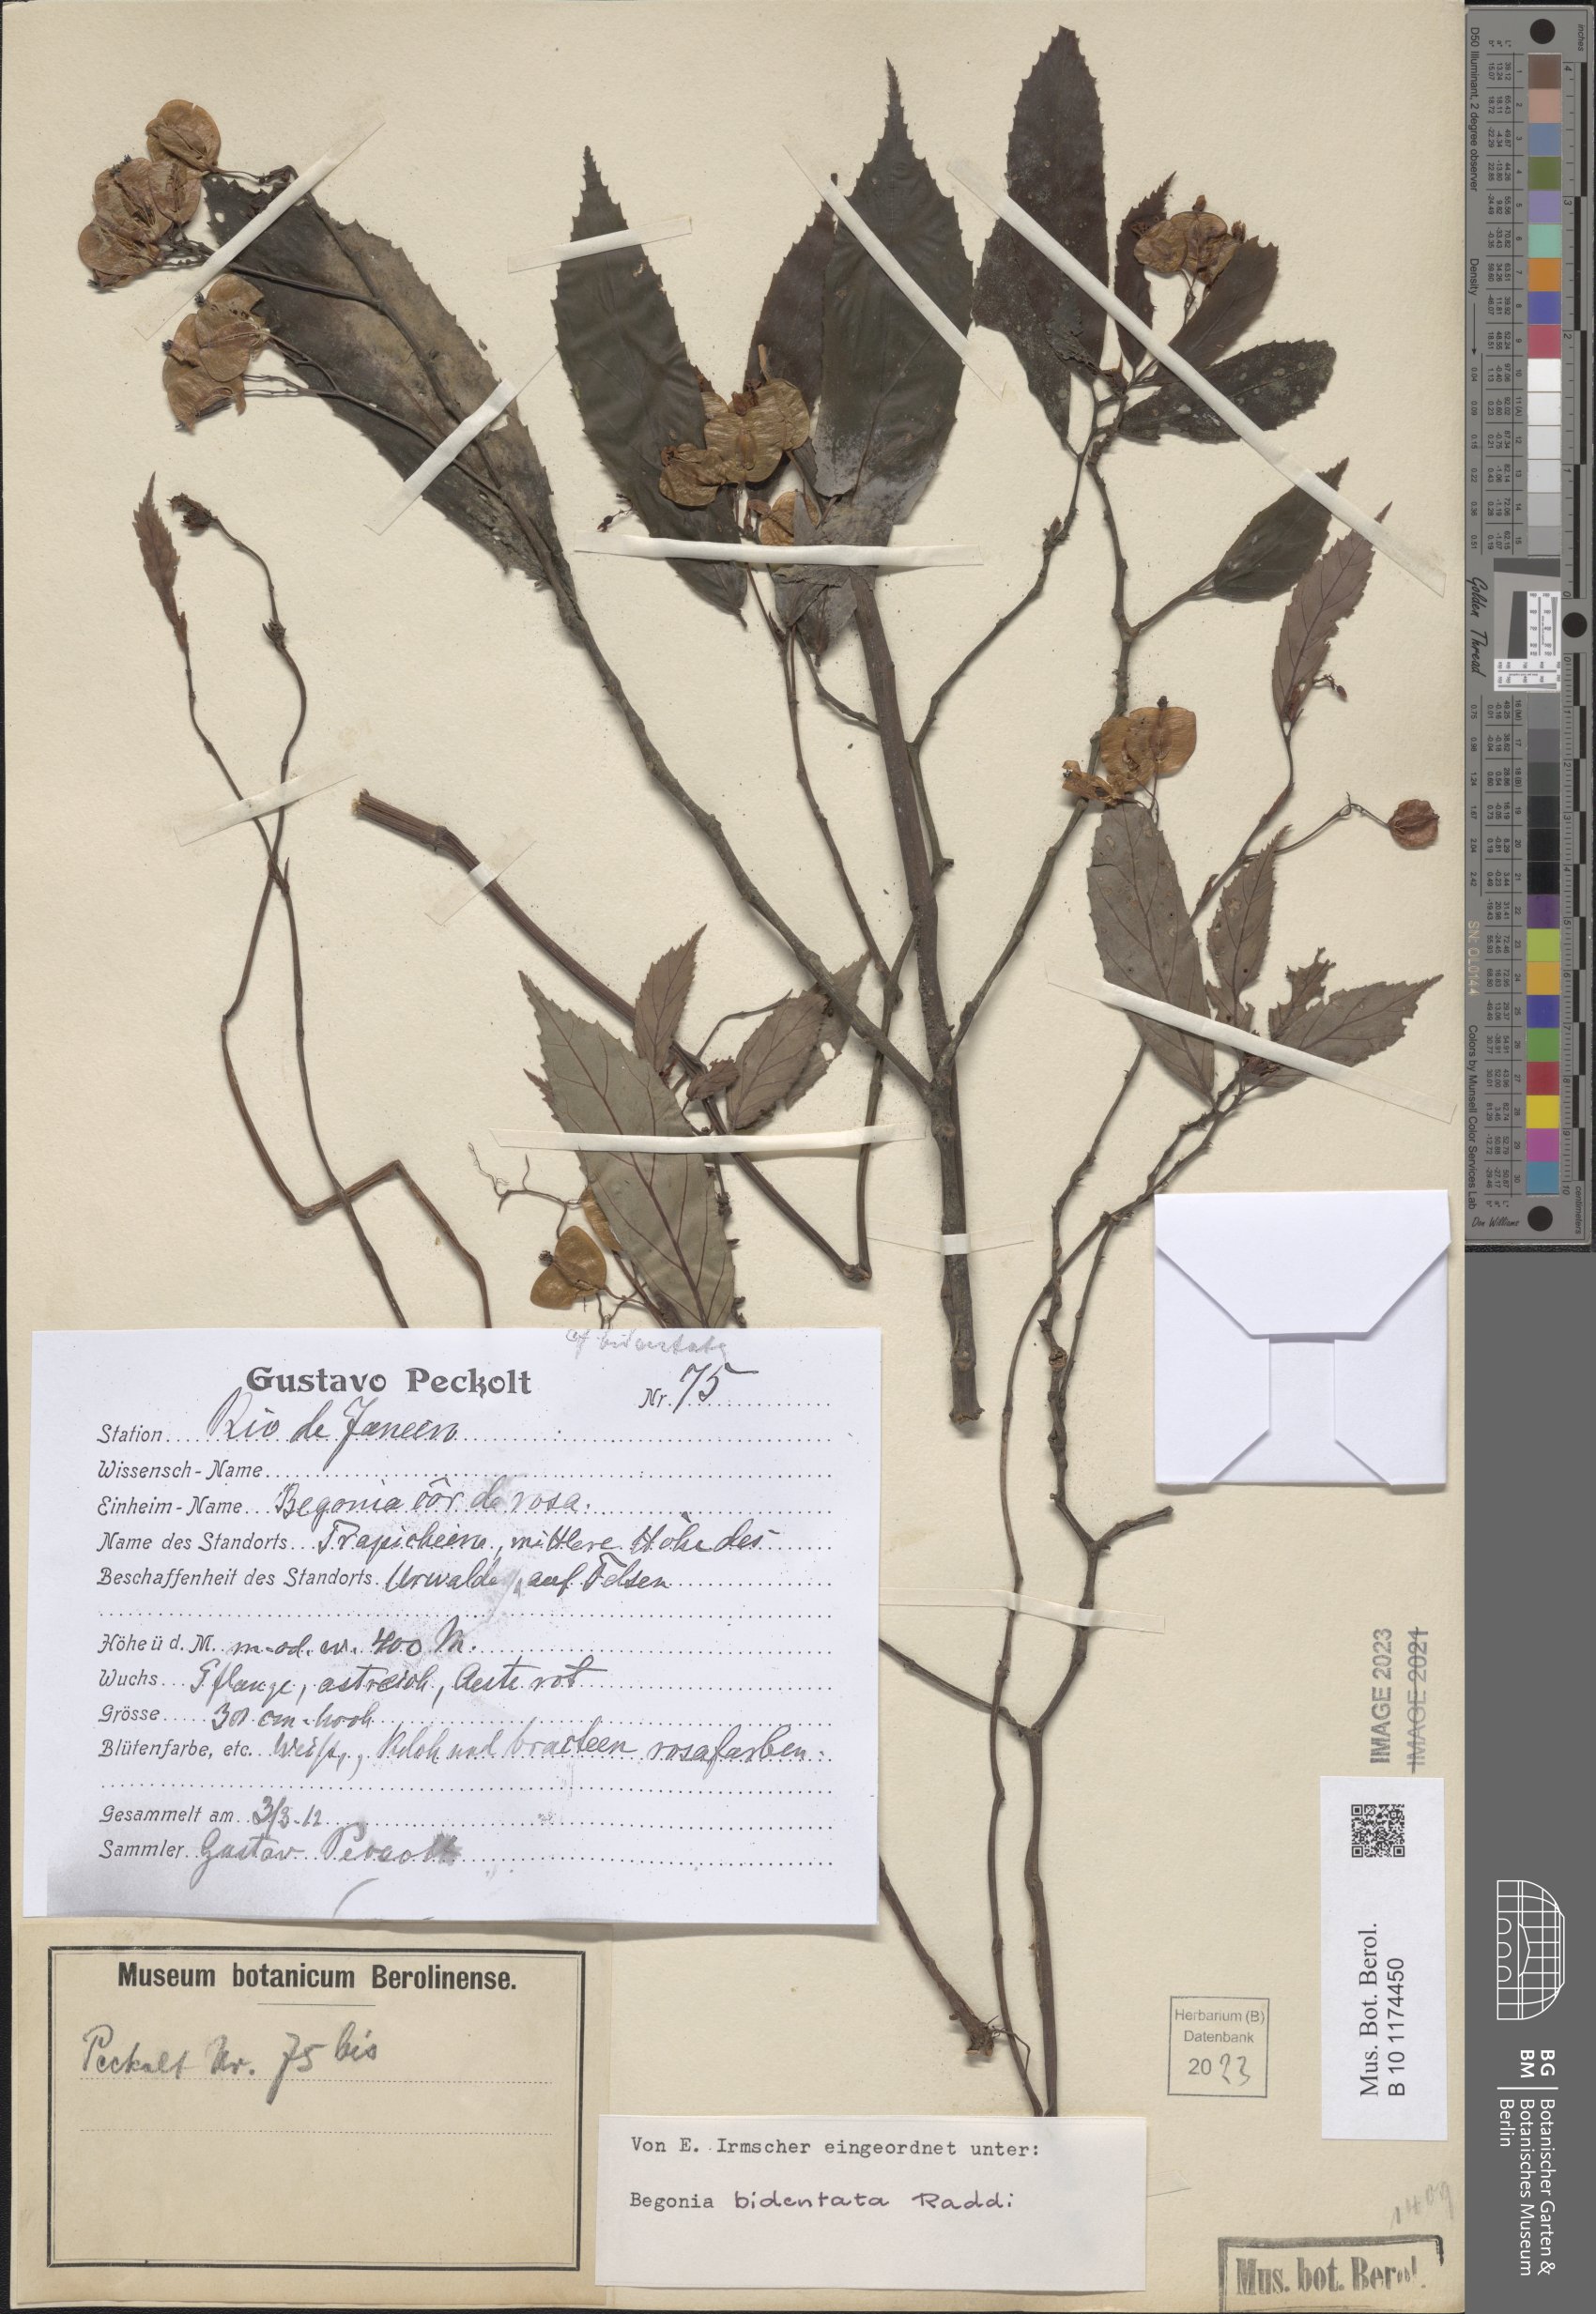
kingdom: Plantae
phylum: Tracheophyta
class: Magnoliopsida
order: Cucurbitales
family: Begoniaceae
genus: Begonia
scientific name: Begonia bidentata
